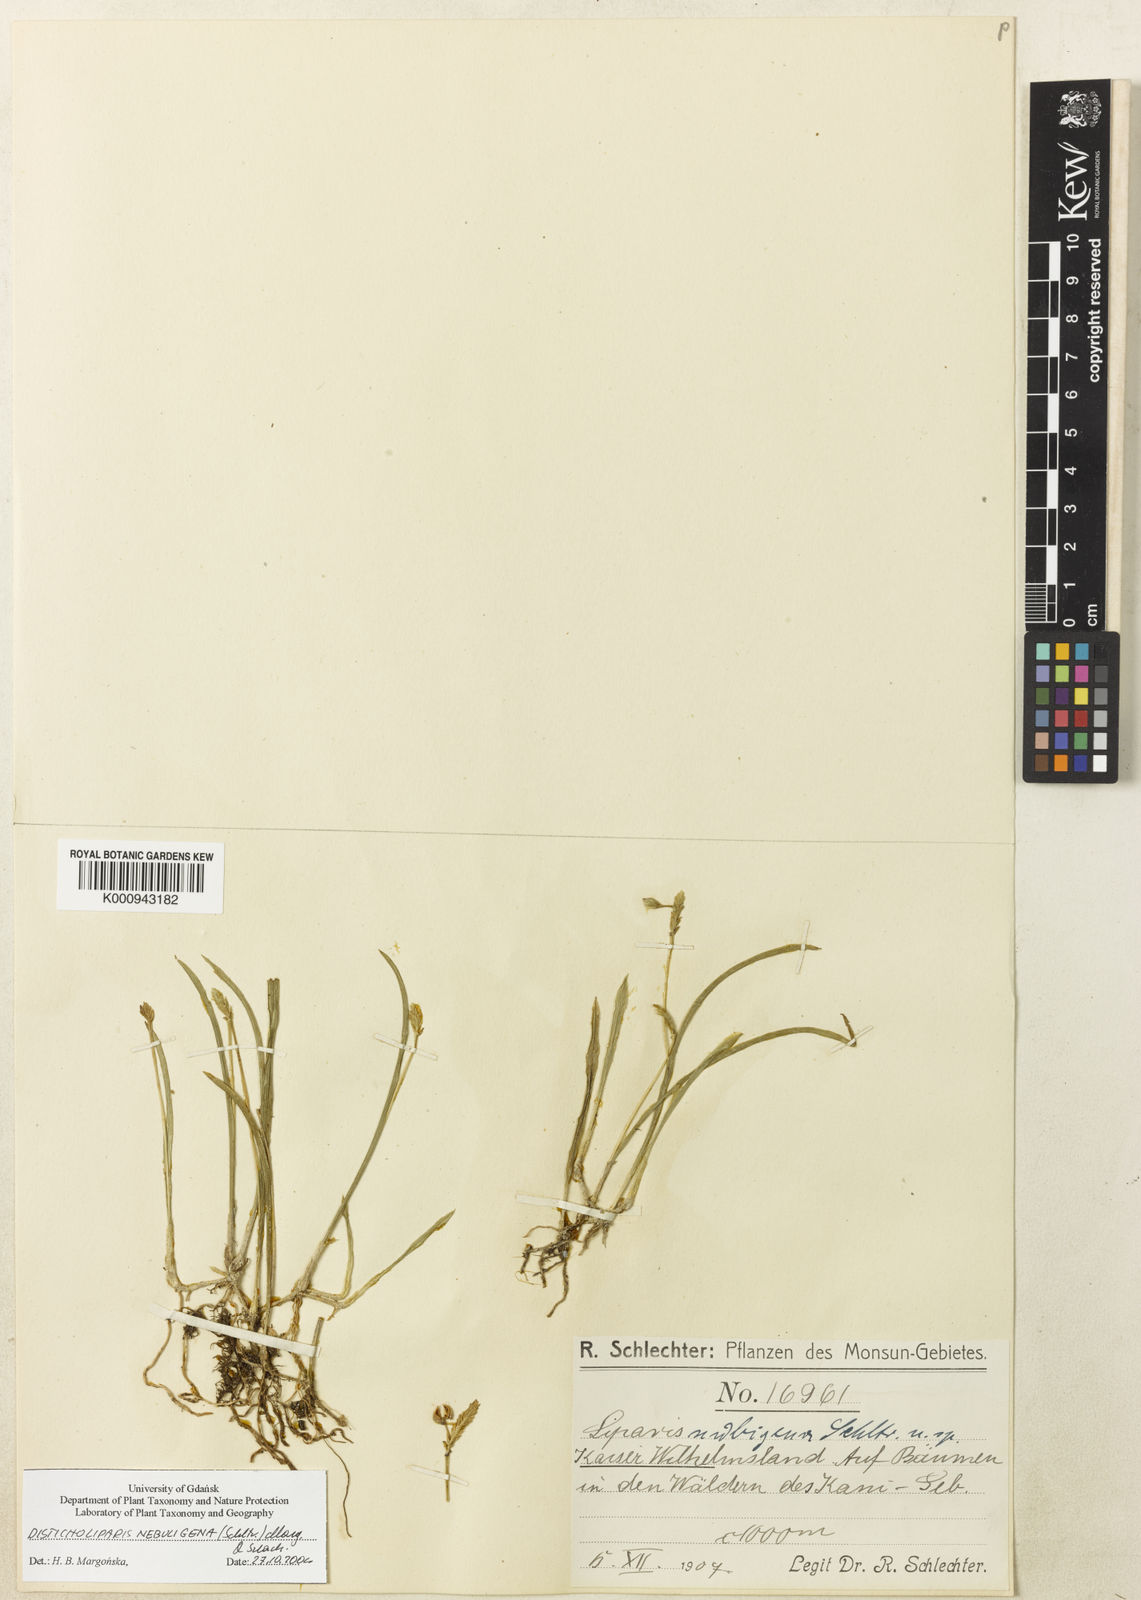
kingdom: Plantae
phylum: Tracheophyta
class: Liliopsida
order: Asparagales
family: Orchidaceae
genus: Liparis
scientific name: Liparis nebuligena
